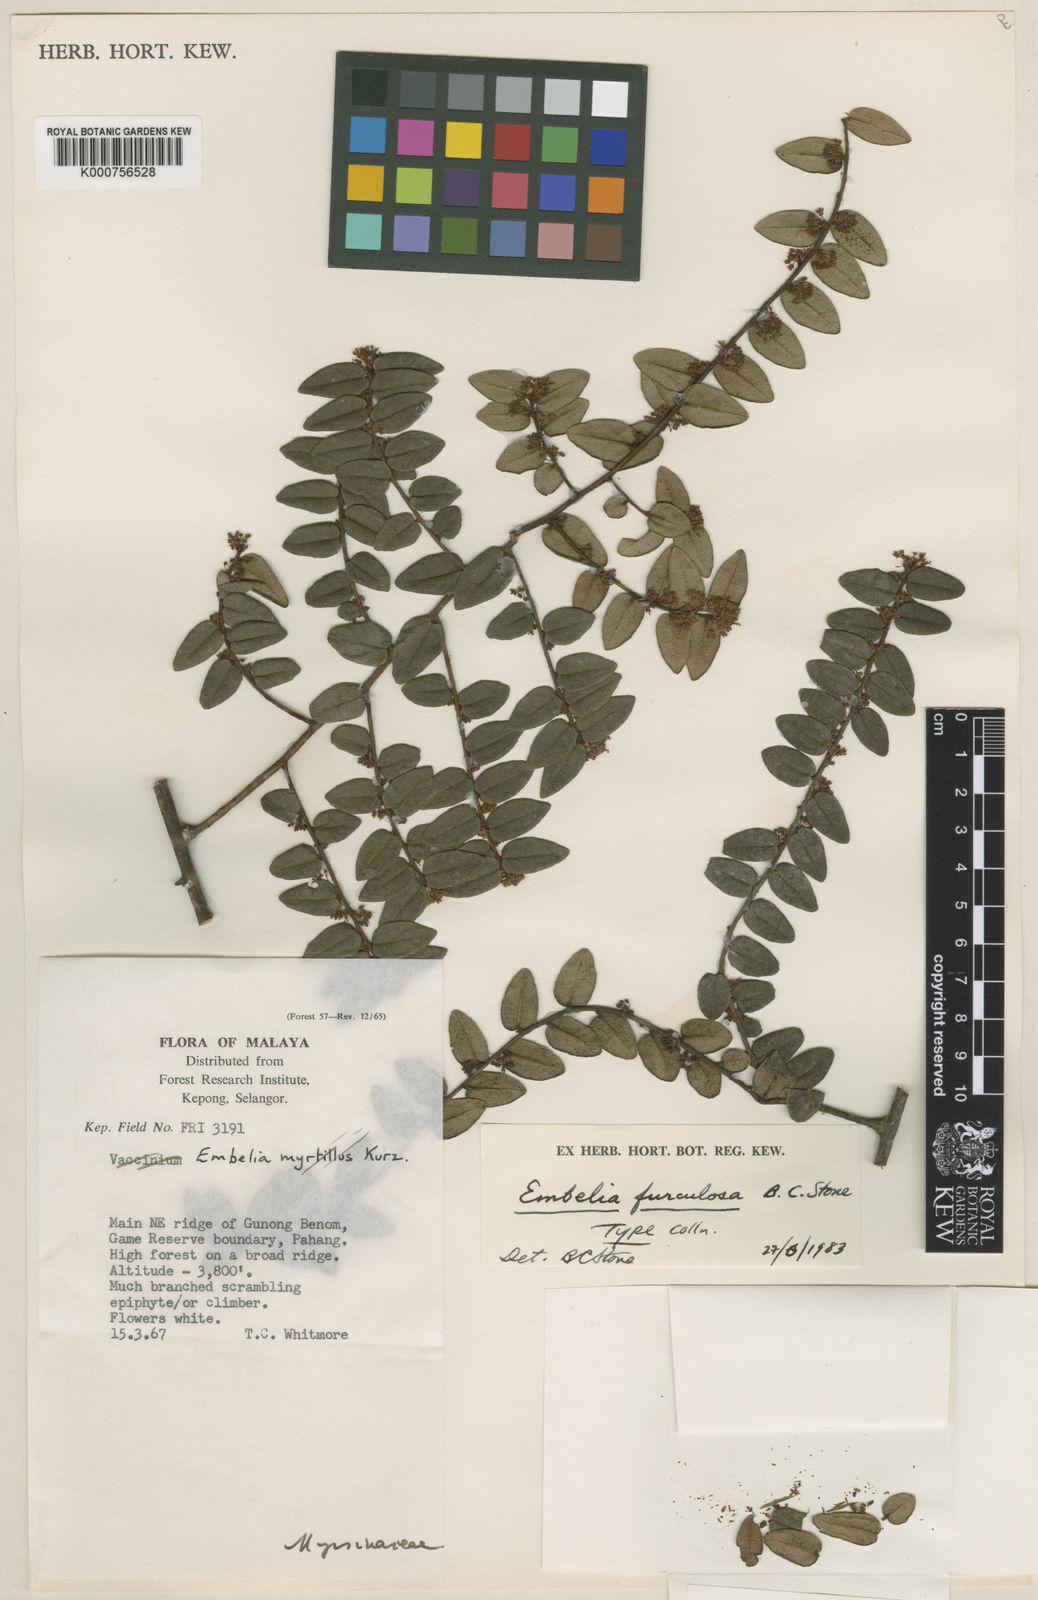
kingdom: Plantae
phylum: Tracheophyta
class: Magnoliopsida
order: Ericales
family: Primulaceae
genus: Embelia
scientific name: Embelia furculosa
